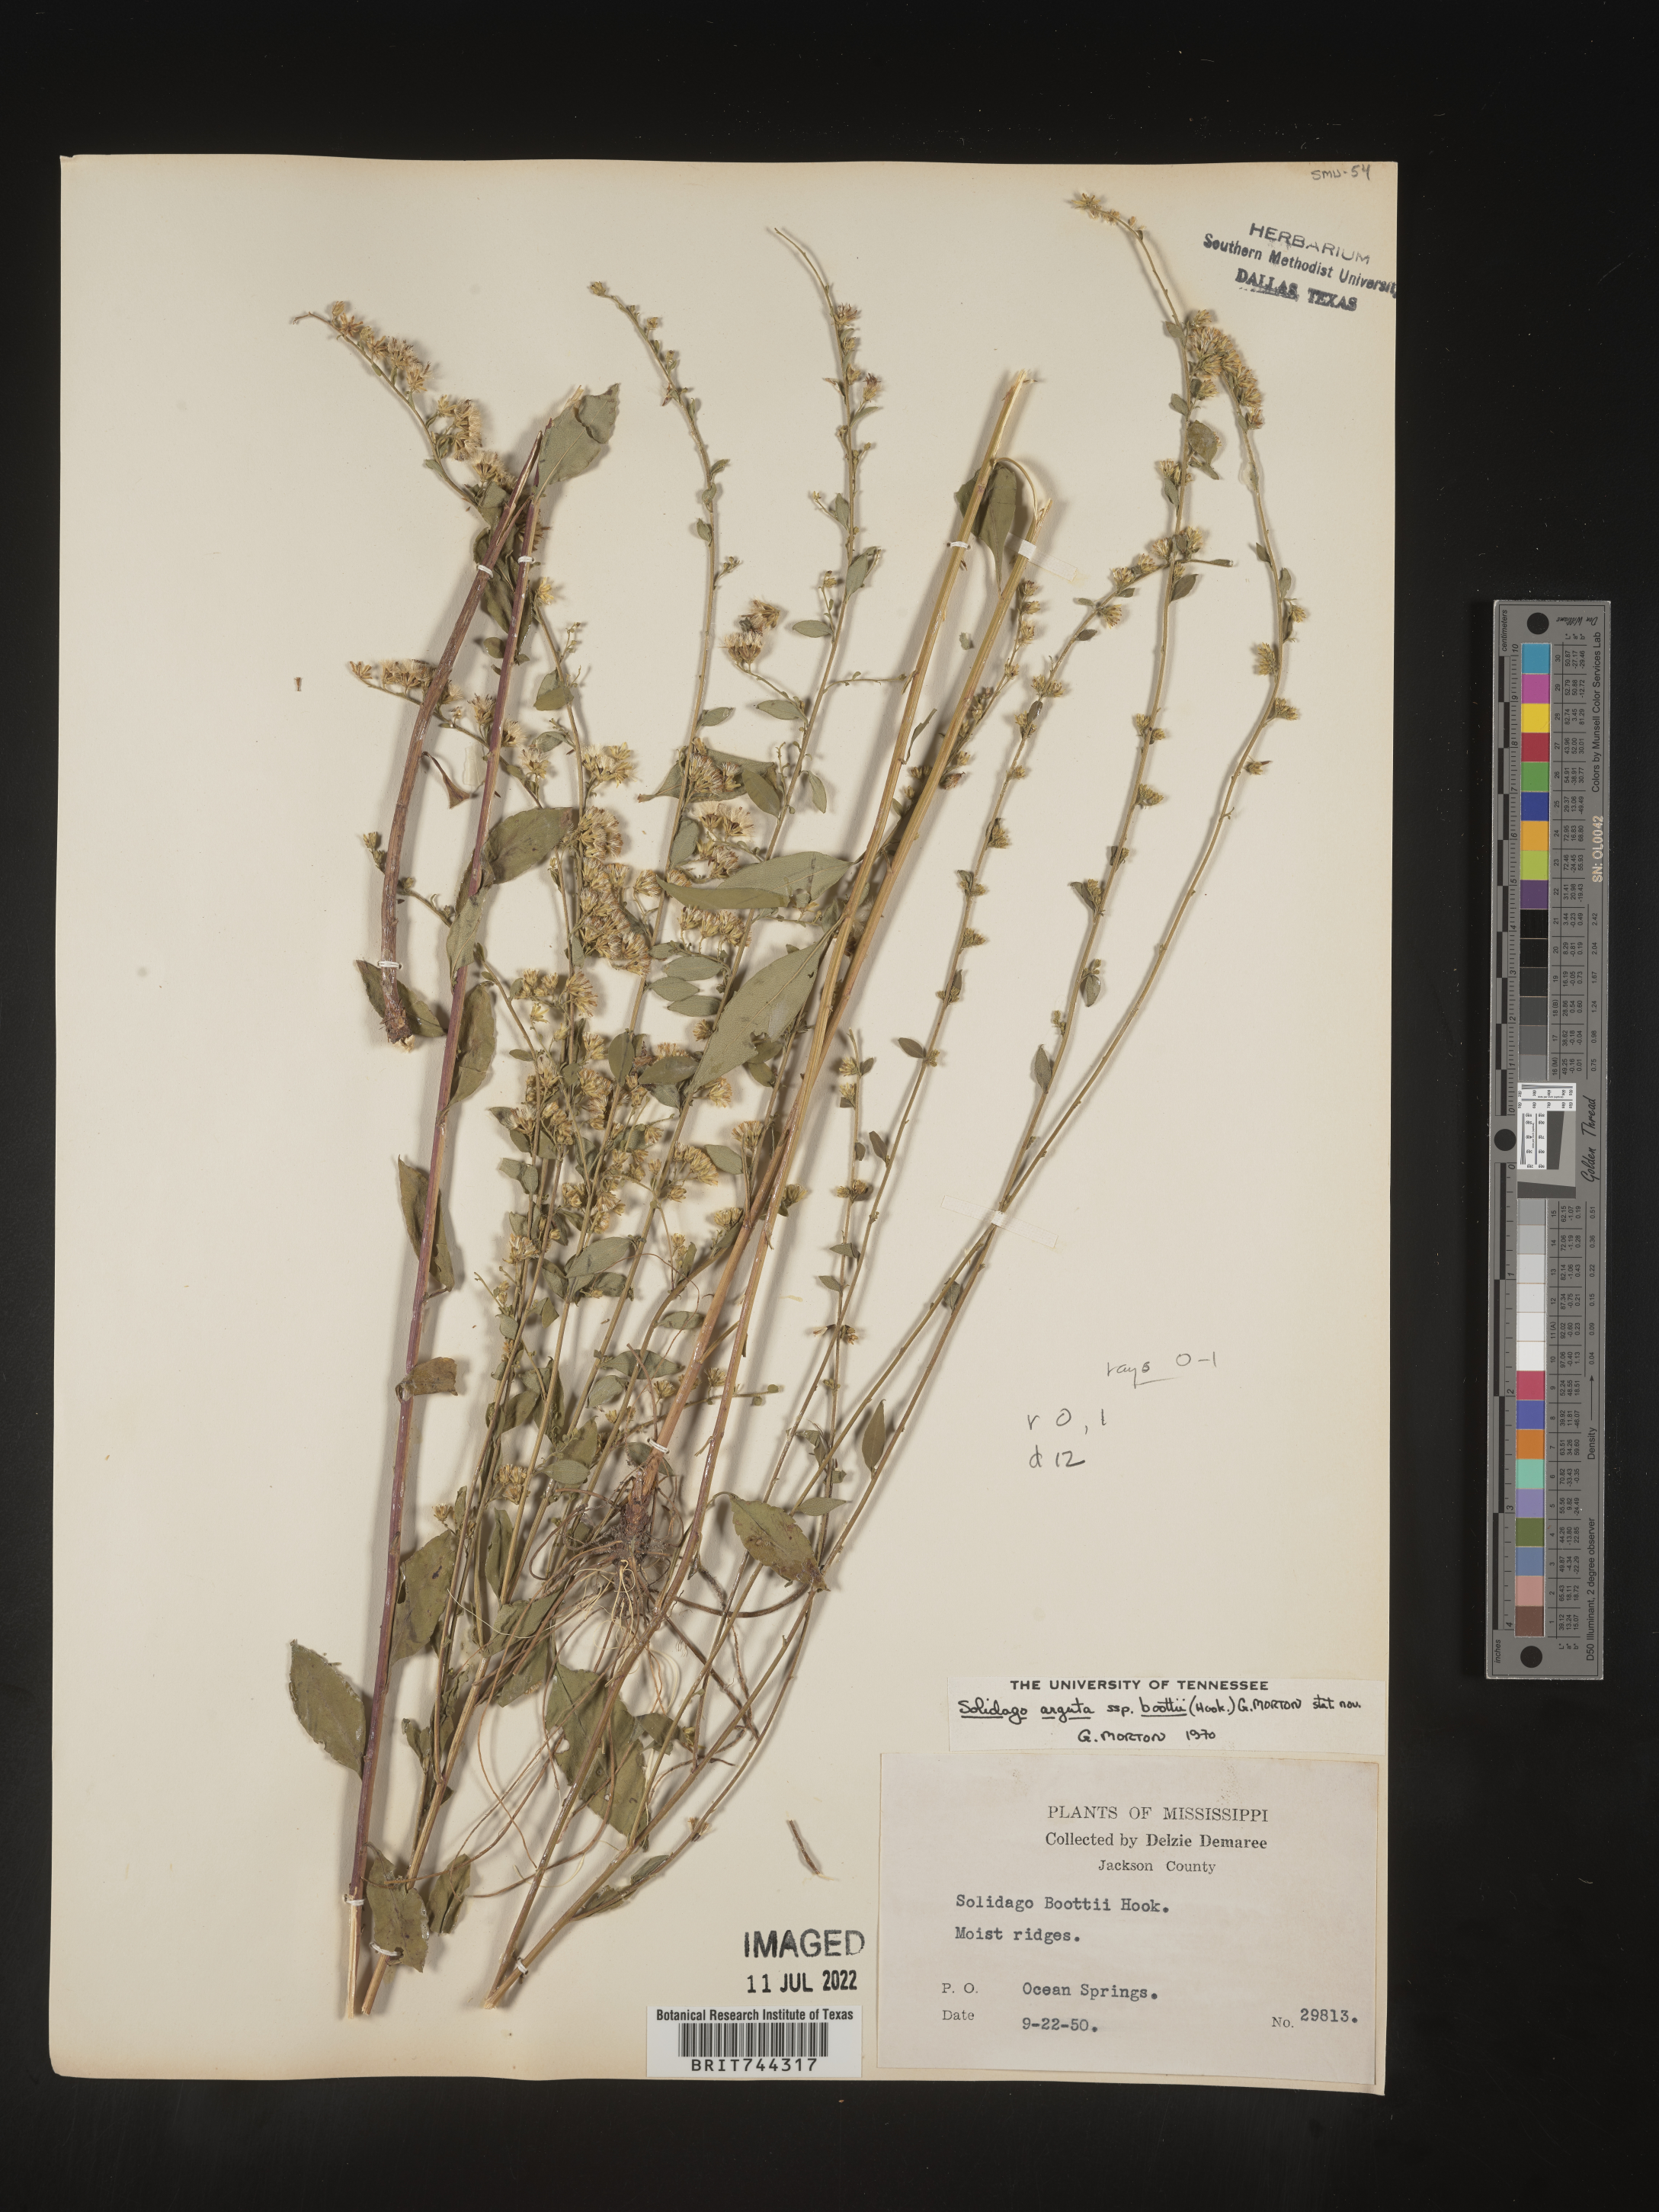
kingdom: Plantae
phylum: Tracheophyta
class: Magnoliopsida
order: Asterales
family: Asteraceae
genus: Solidago
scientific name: Solidago arguta
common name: Atlantic goldenrod
